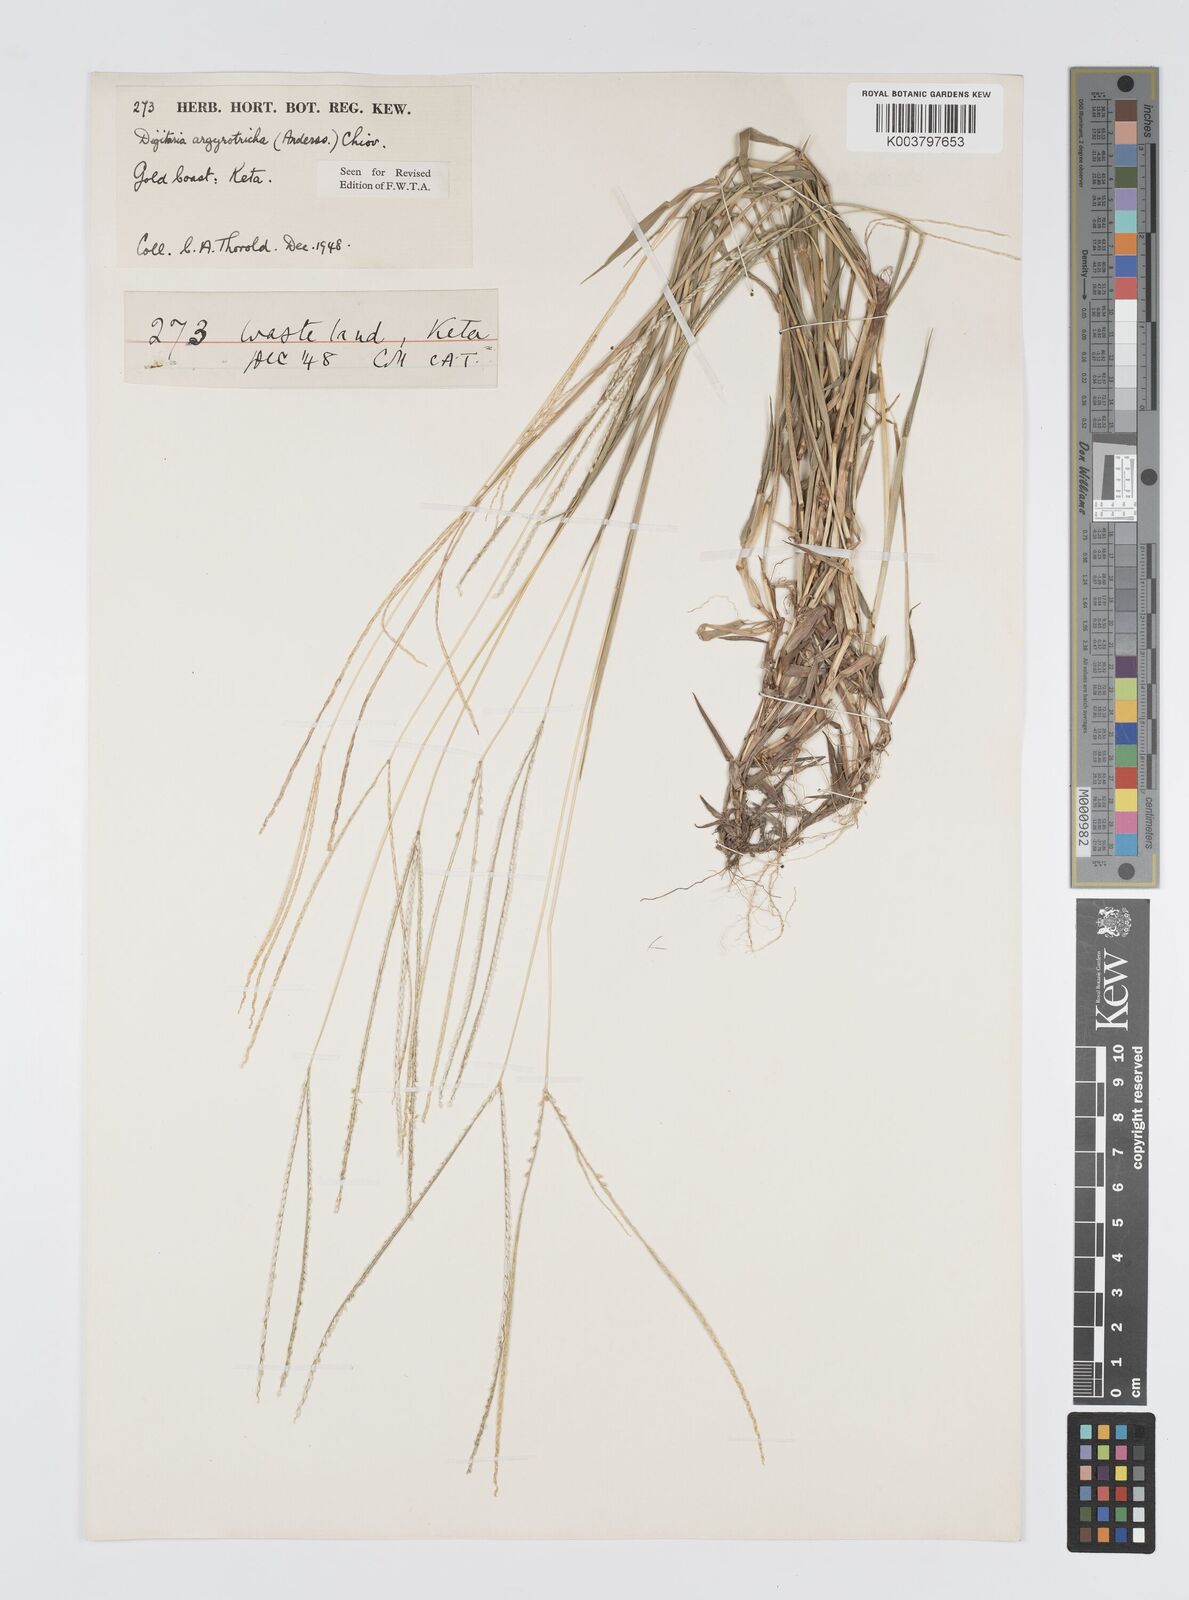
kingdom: Plantae
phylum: Tracheophyta
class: Liliopsida
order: Poales
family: Poaceae
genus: Digitaria
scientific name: Digitaria argyrotricha
